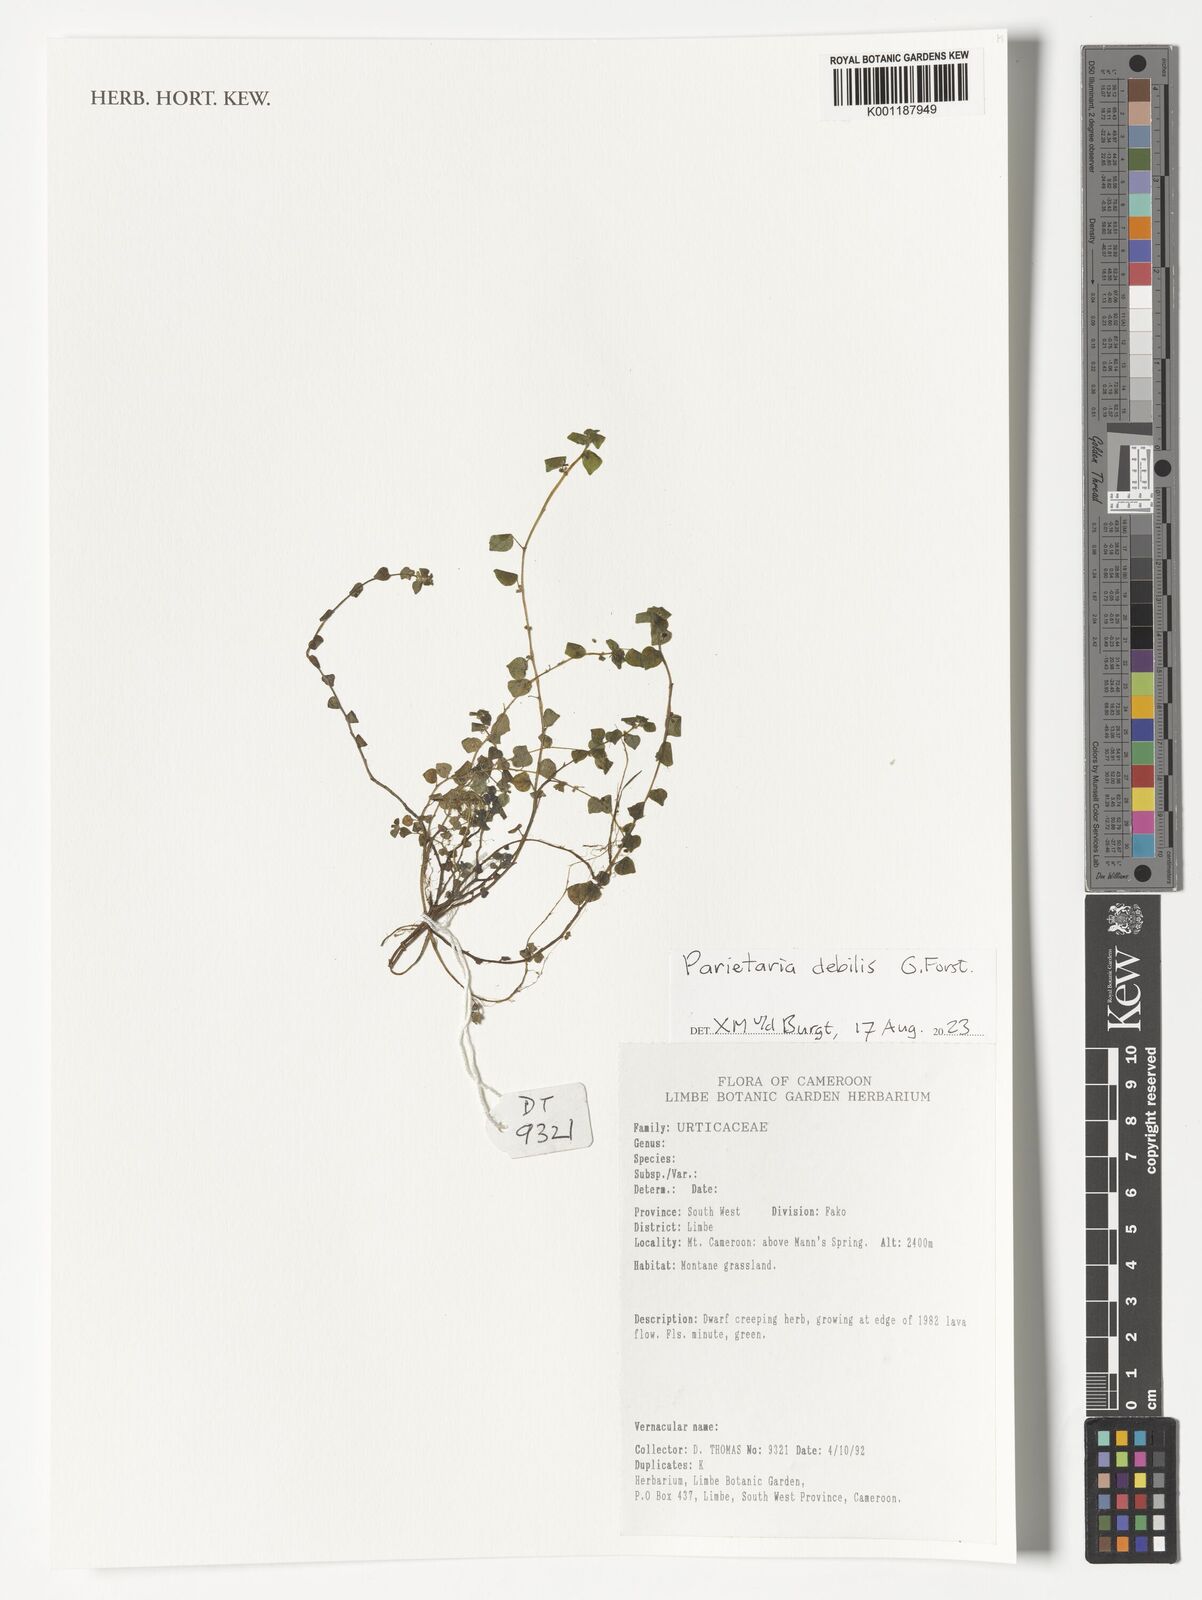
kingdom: Plantae
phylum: Tracheophyta
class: Magnoliopsida
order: Rosales
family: Urticaceae
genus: Parietaria
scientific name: Parietaria debilis
